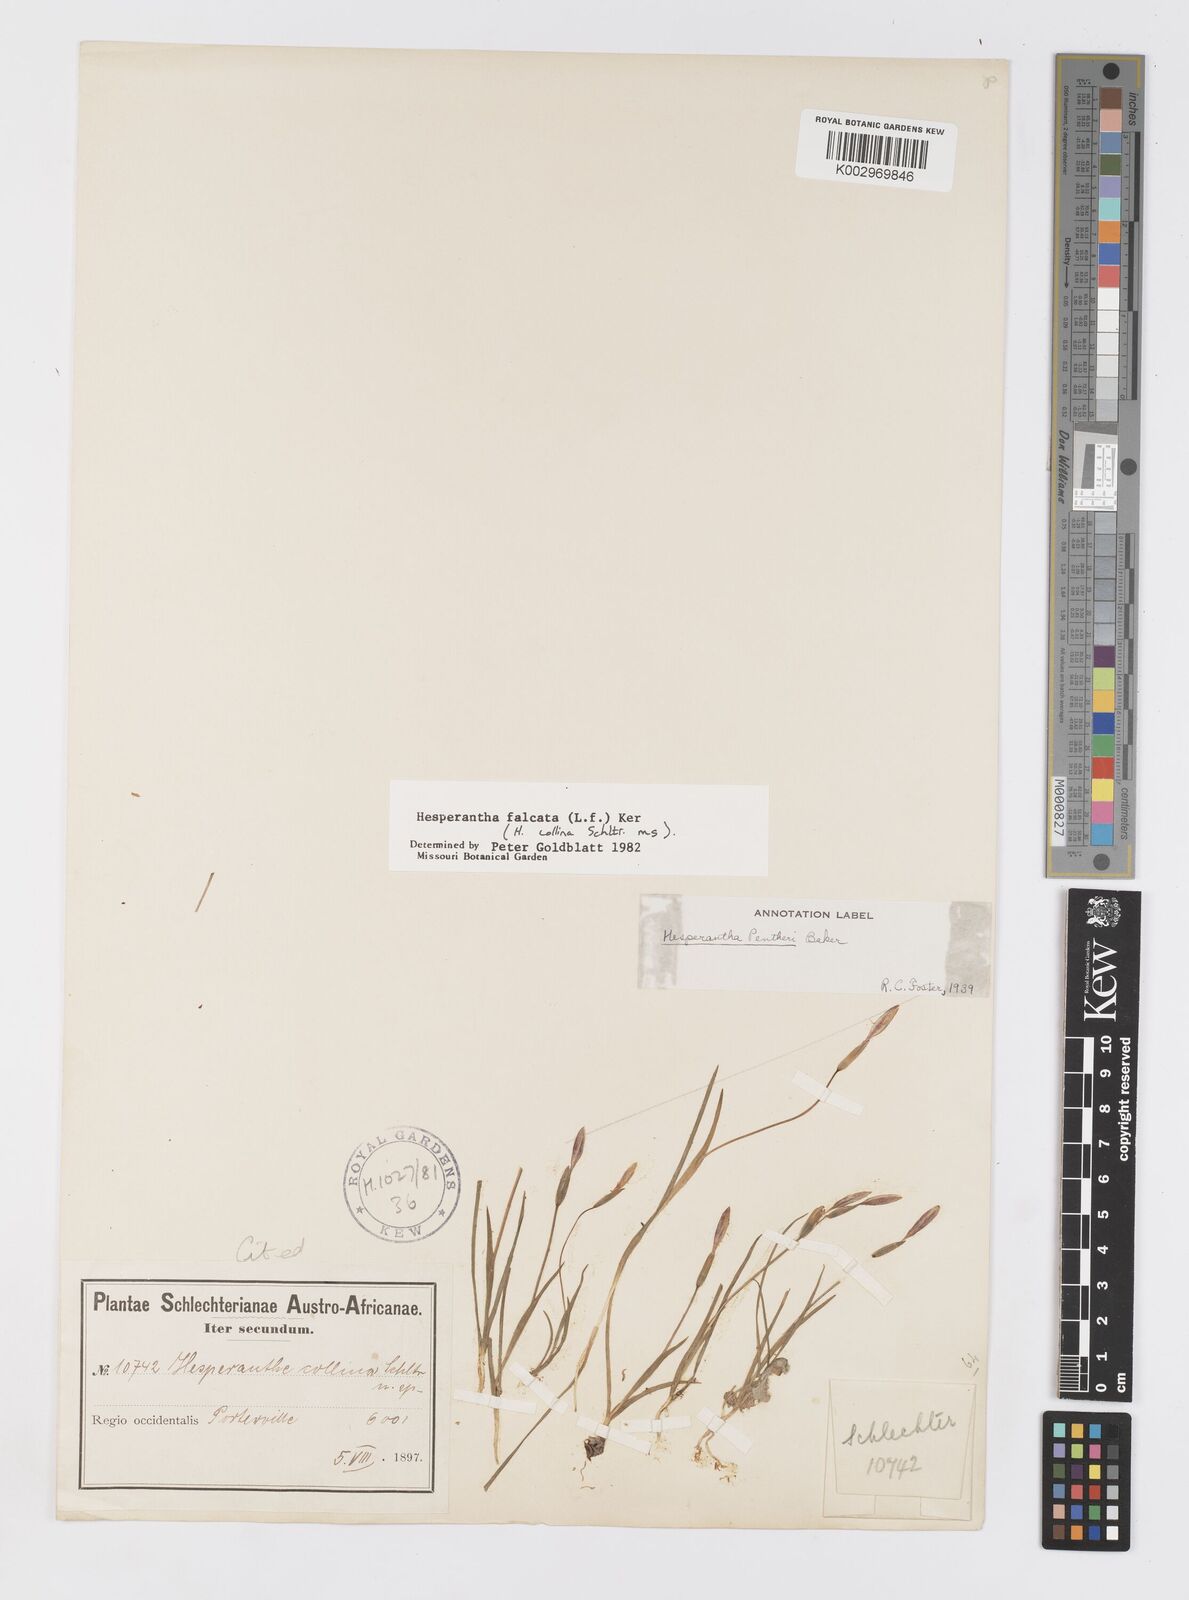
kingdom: Plantae
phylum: Tracheophyta
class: Liliopsida
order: Asparagales
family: Iridaceae
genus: Hesperantha
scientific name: Hesperantha falcata
